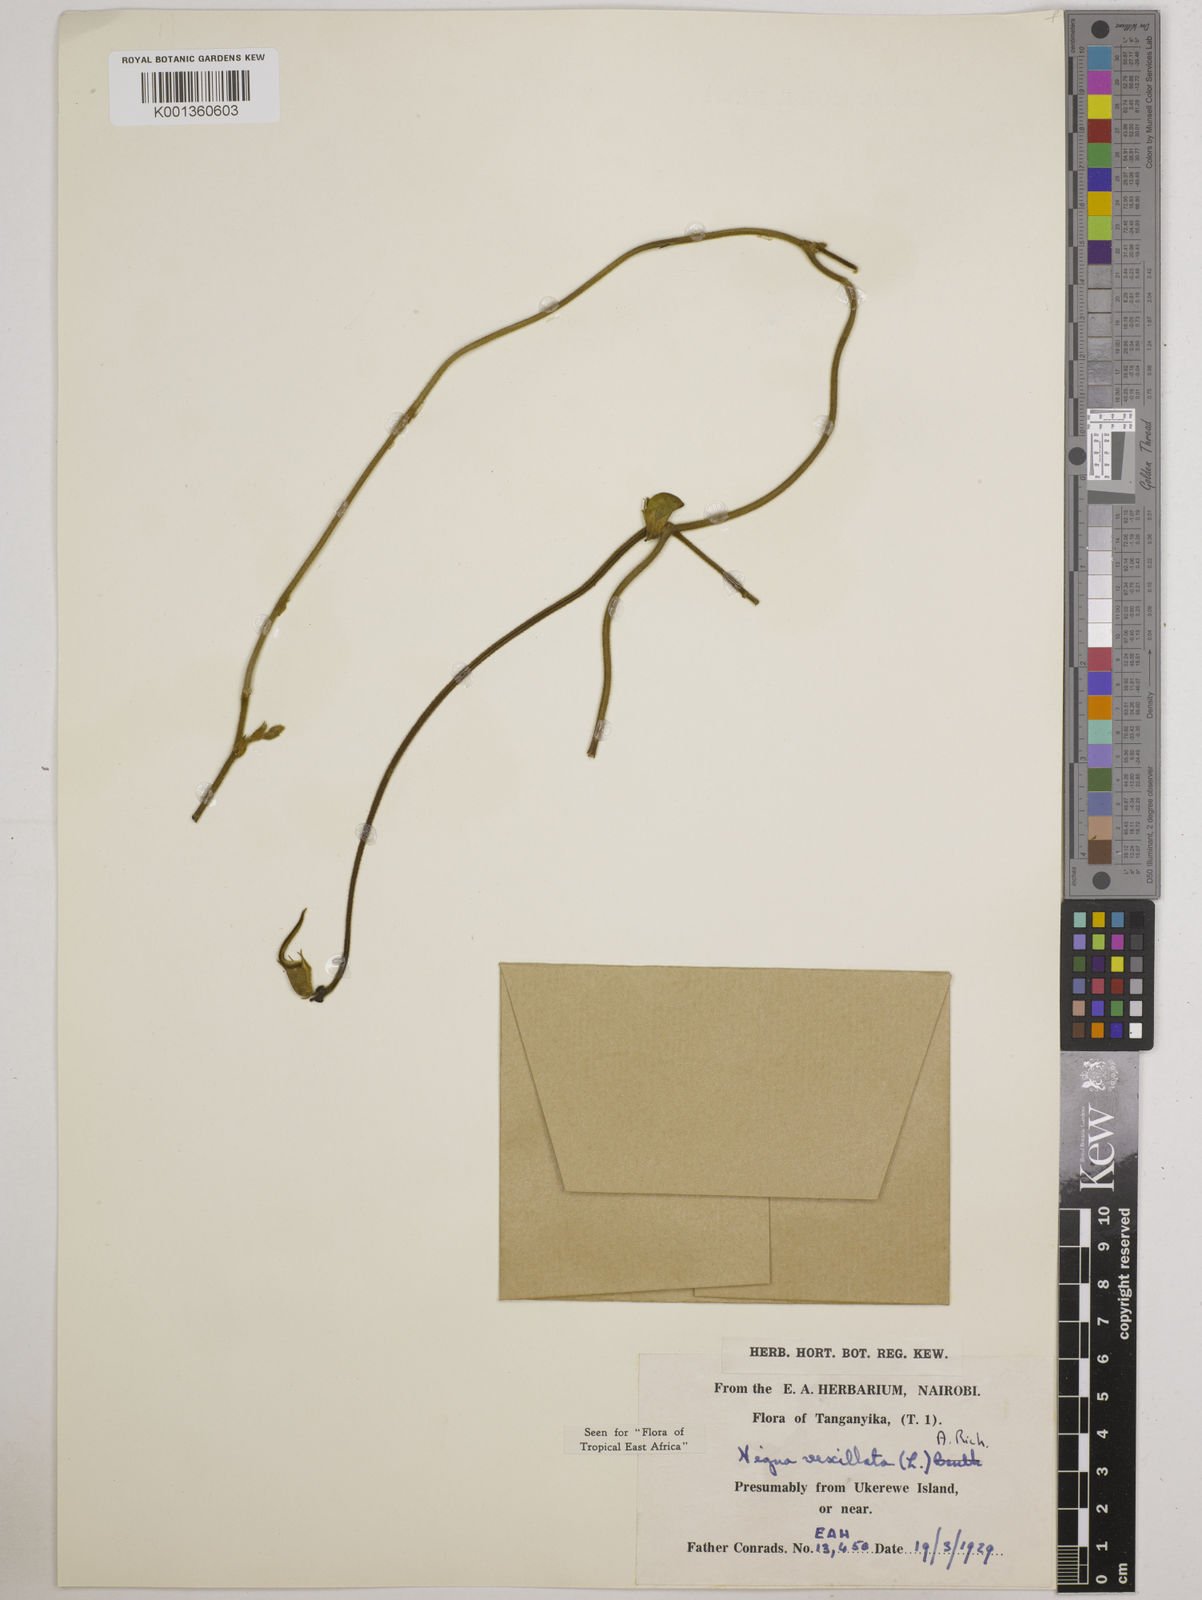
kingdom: Plantae
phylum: Tracheophyta
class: Magnoliopsida
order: Fabales
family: Fabaceae
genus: Vigna
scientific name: Vigna vexillata
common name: Zombi pea
